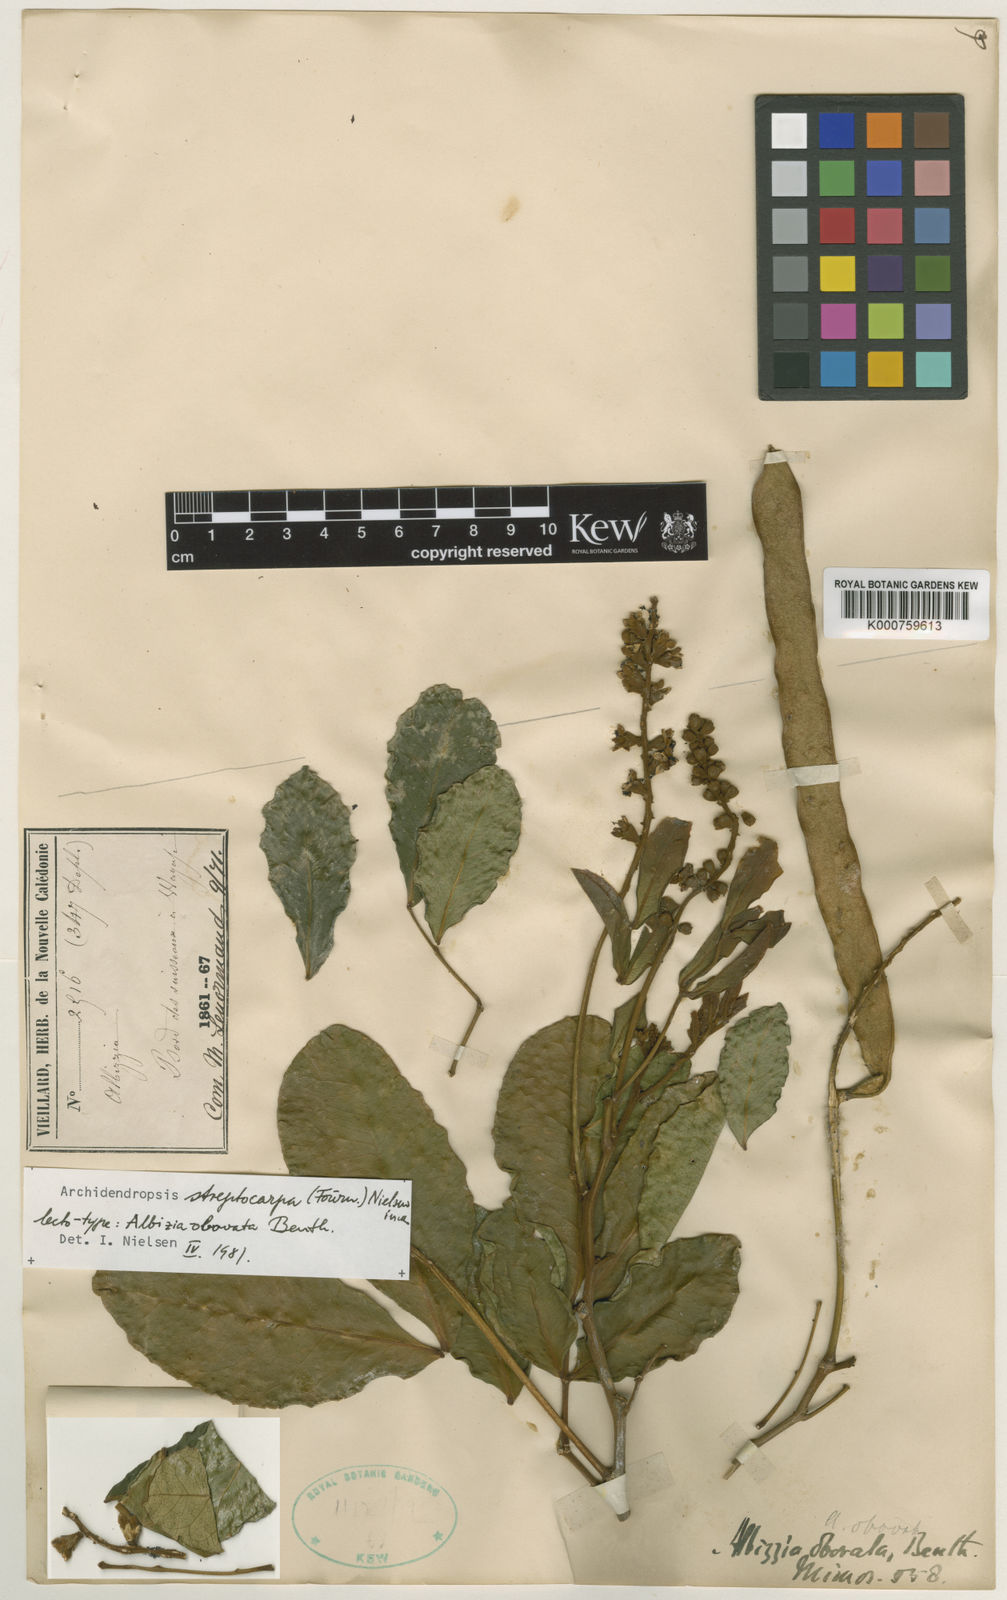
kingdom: Plantae
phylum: Tracheophyta
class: Magnoliopsida
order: Fabales
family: Fabaceae
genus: Archidendropsis
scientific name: Archidendropsis streptocarpa
